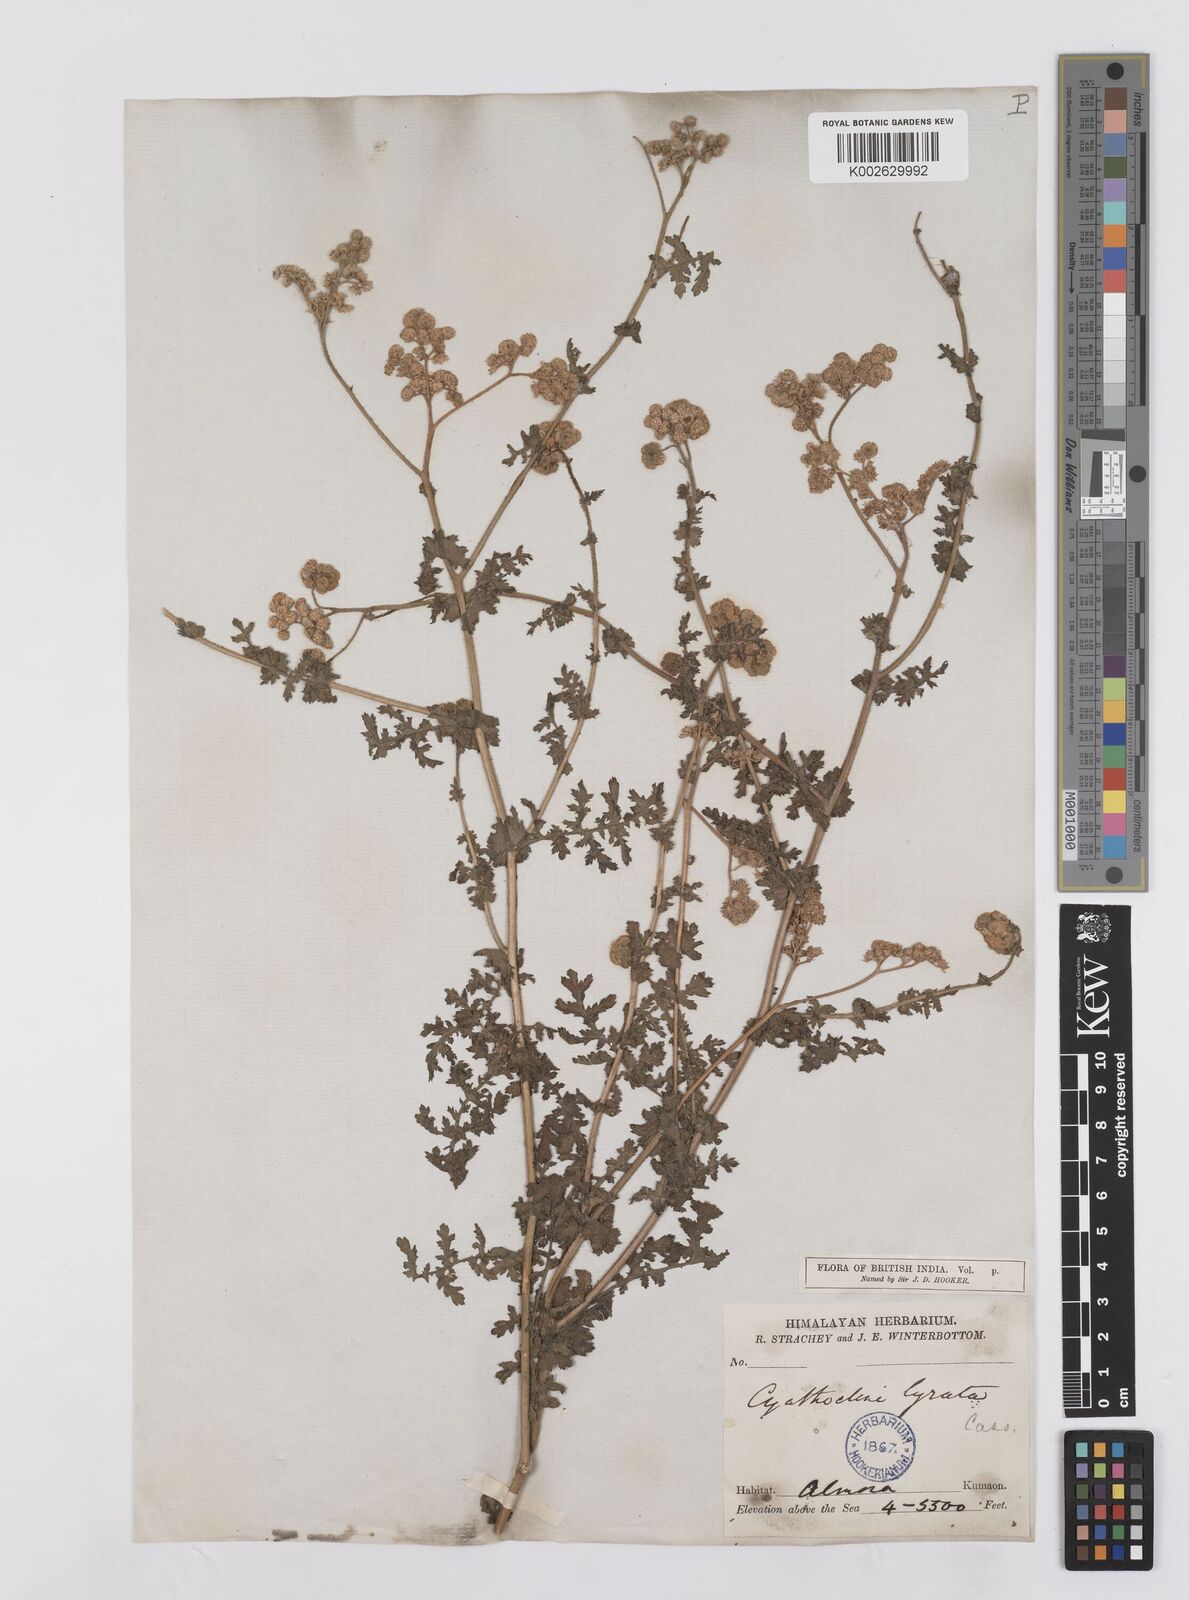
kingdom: Plantae
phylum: Tracheophyta
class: Magnoliopsida
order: Asterales
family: Asteraceae
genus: Cyathocline
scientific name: Cyathocline purpurea
